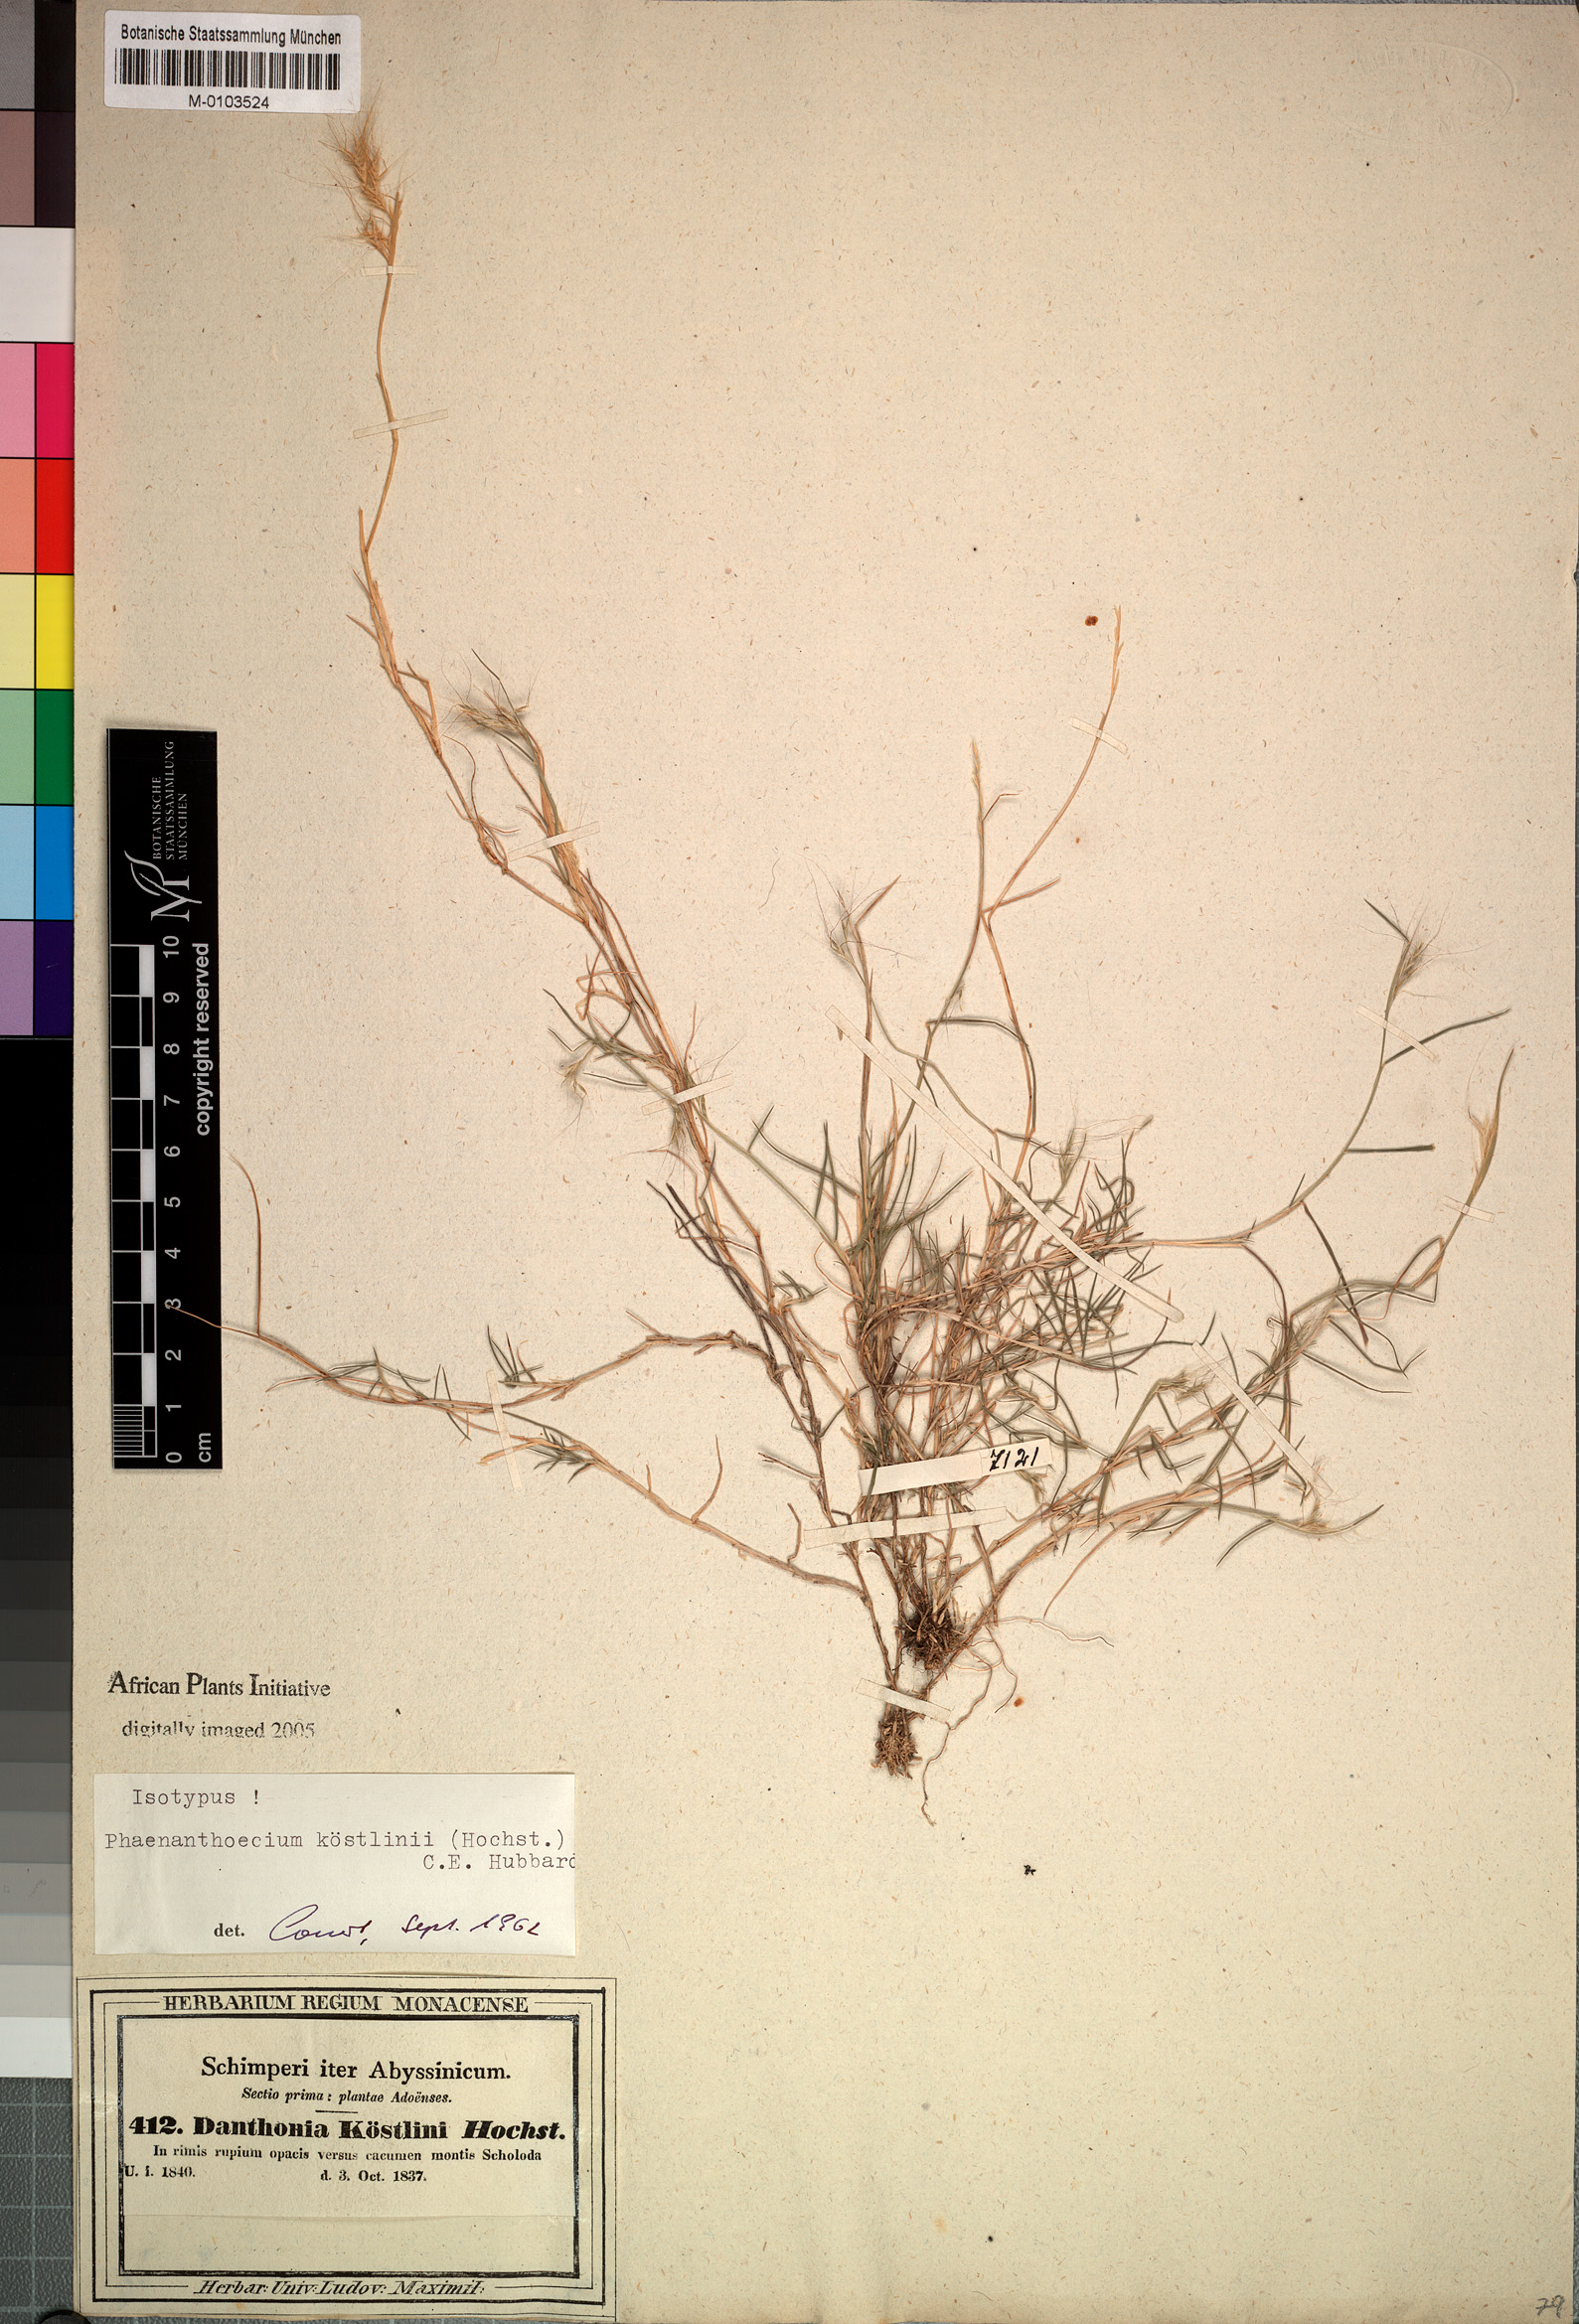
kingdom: Plantae
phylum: Tracheophyta
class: Liliopsida
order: Poales
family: Poaceae
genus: Phaenanthoecium
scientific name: Phaenanthoecium koestlinii
